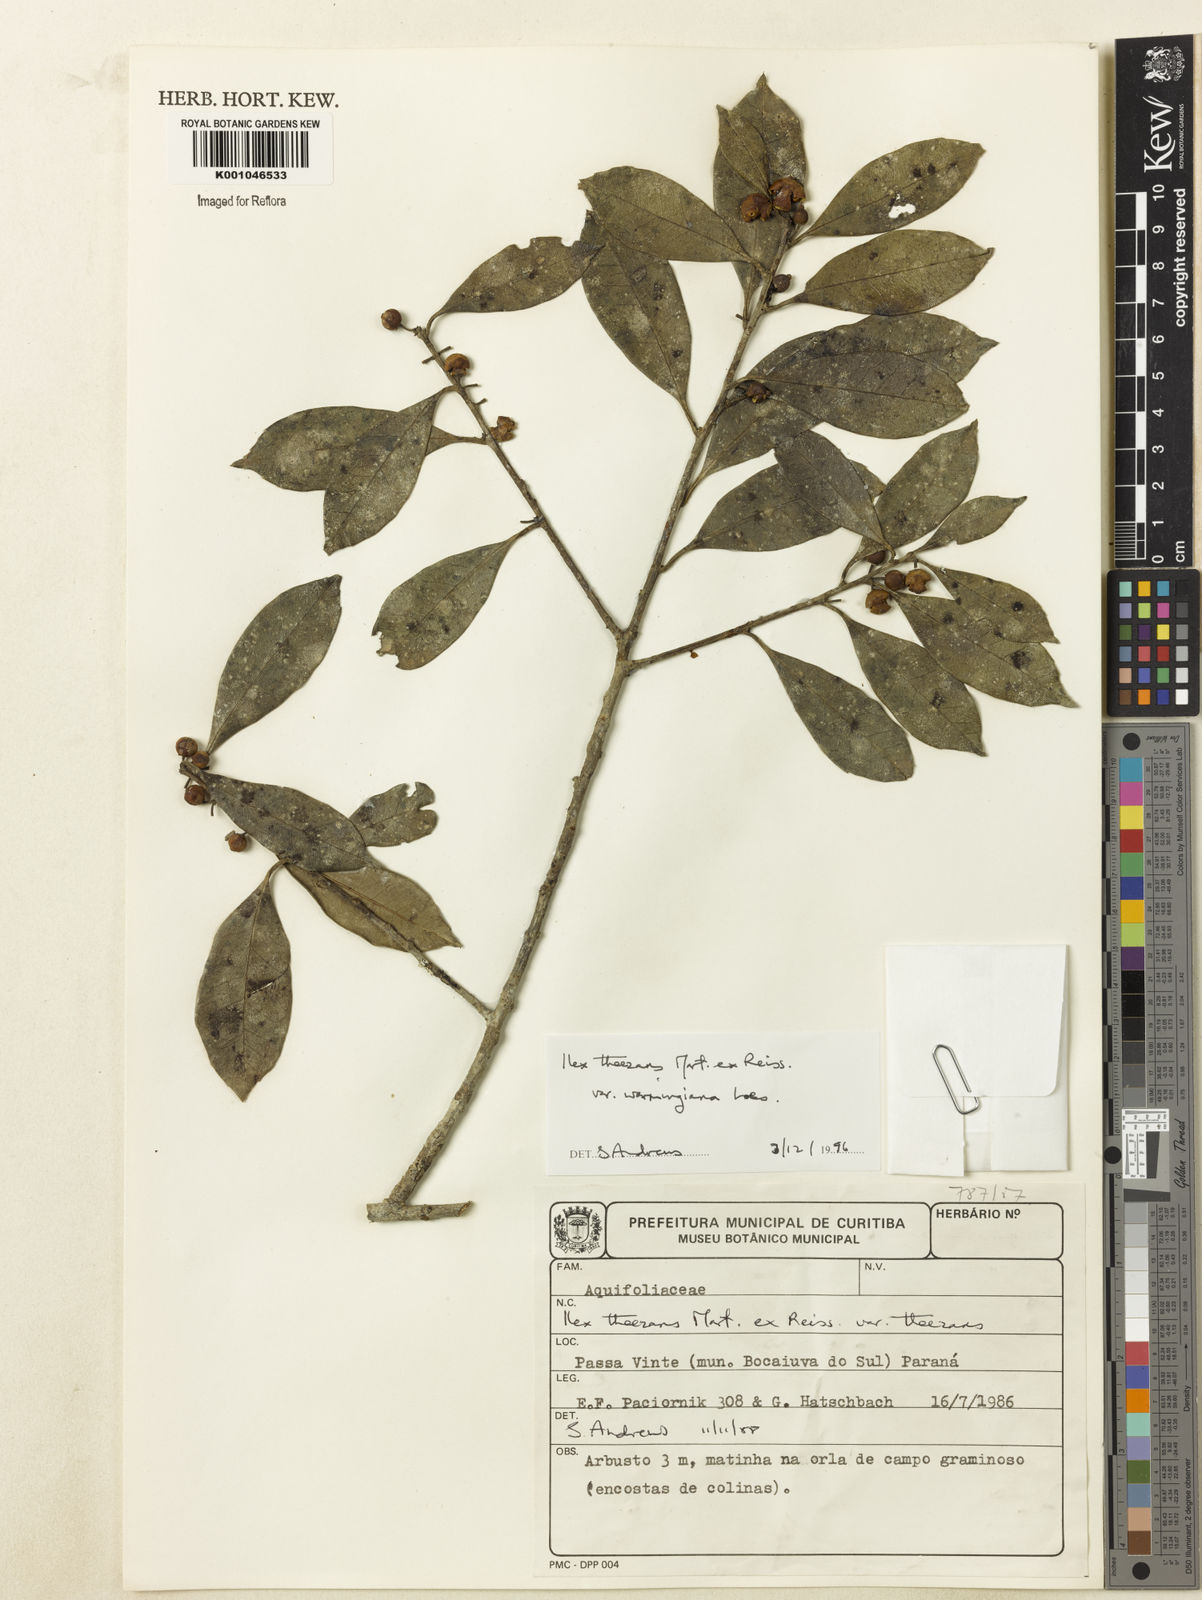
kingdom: Plantae
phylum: Tracheophyta
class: Magnoliopsida
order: Aquifoliales
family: Aquifoliaceae
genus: Ilex
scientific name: Ilex theezans
